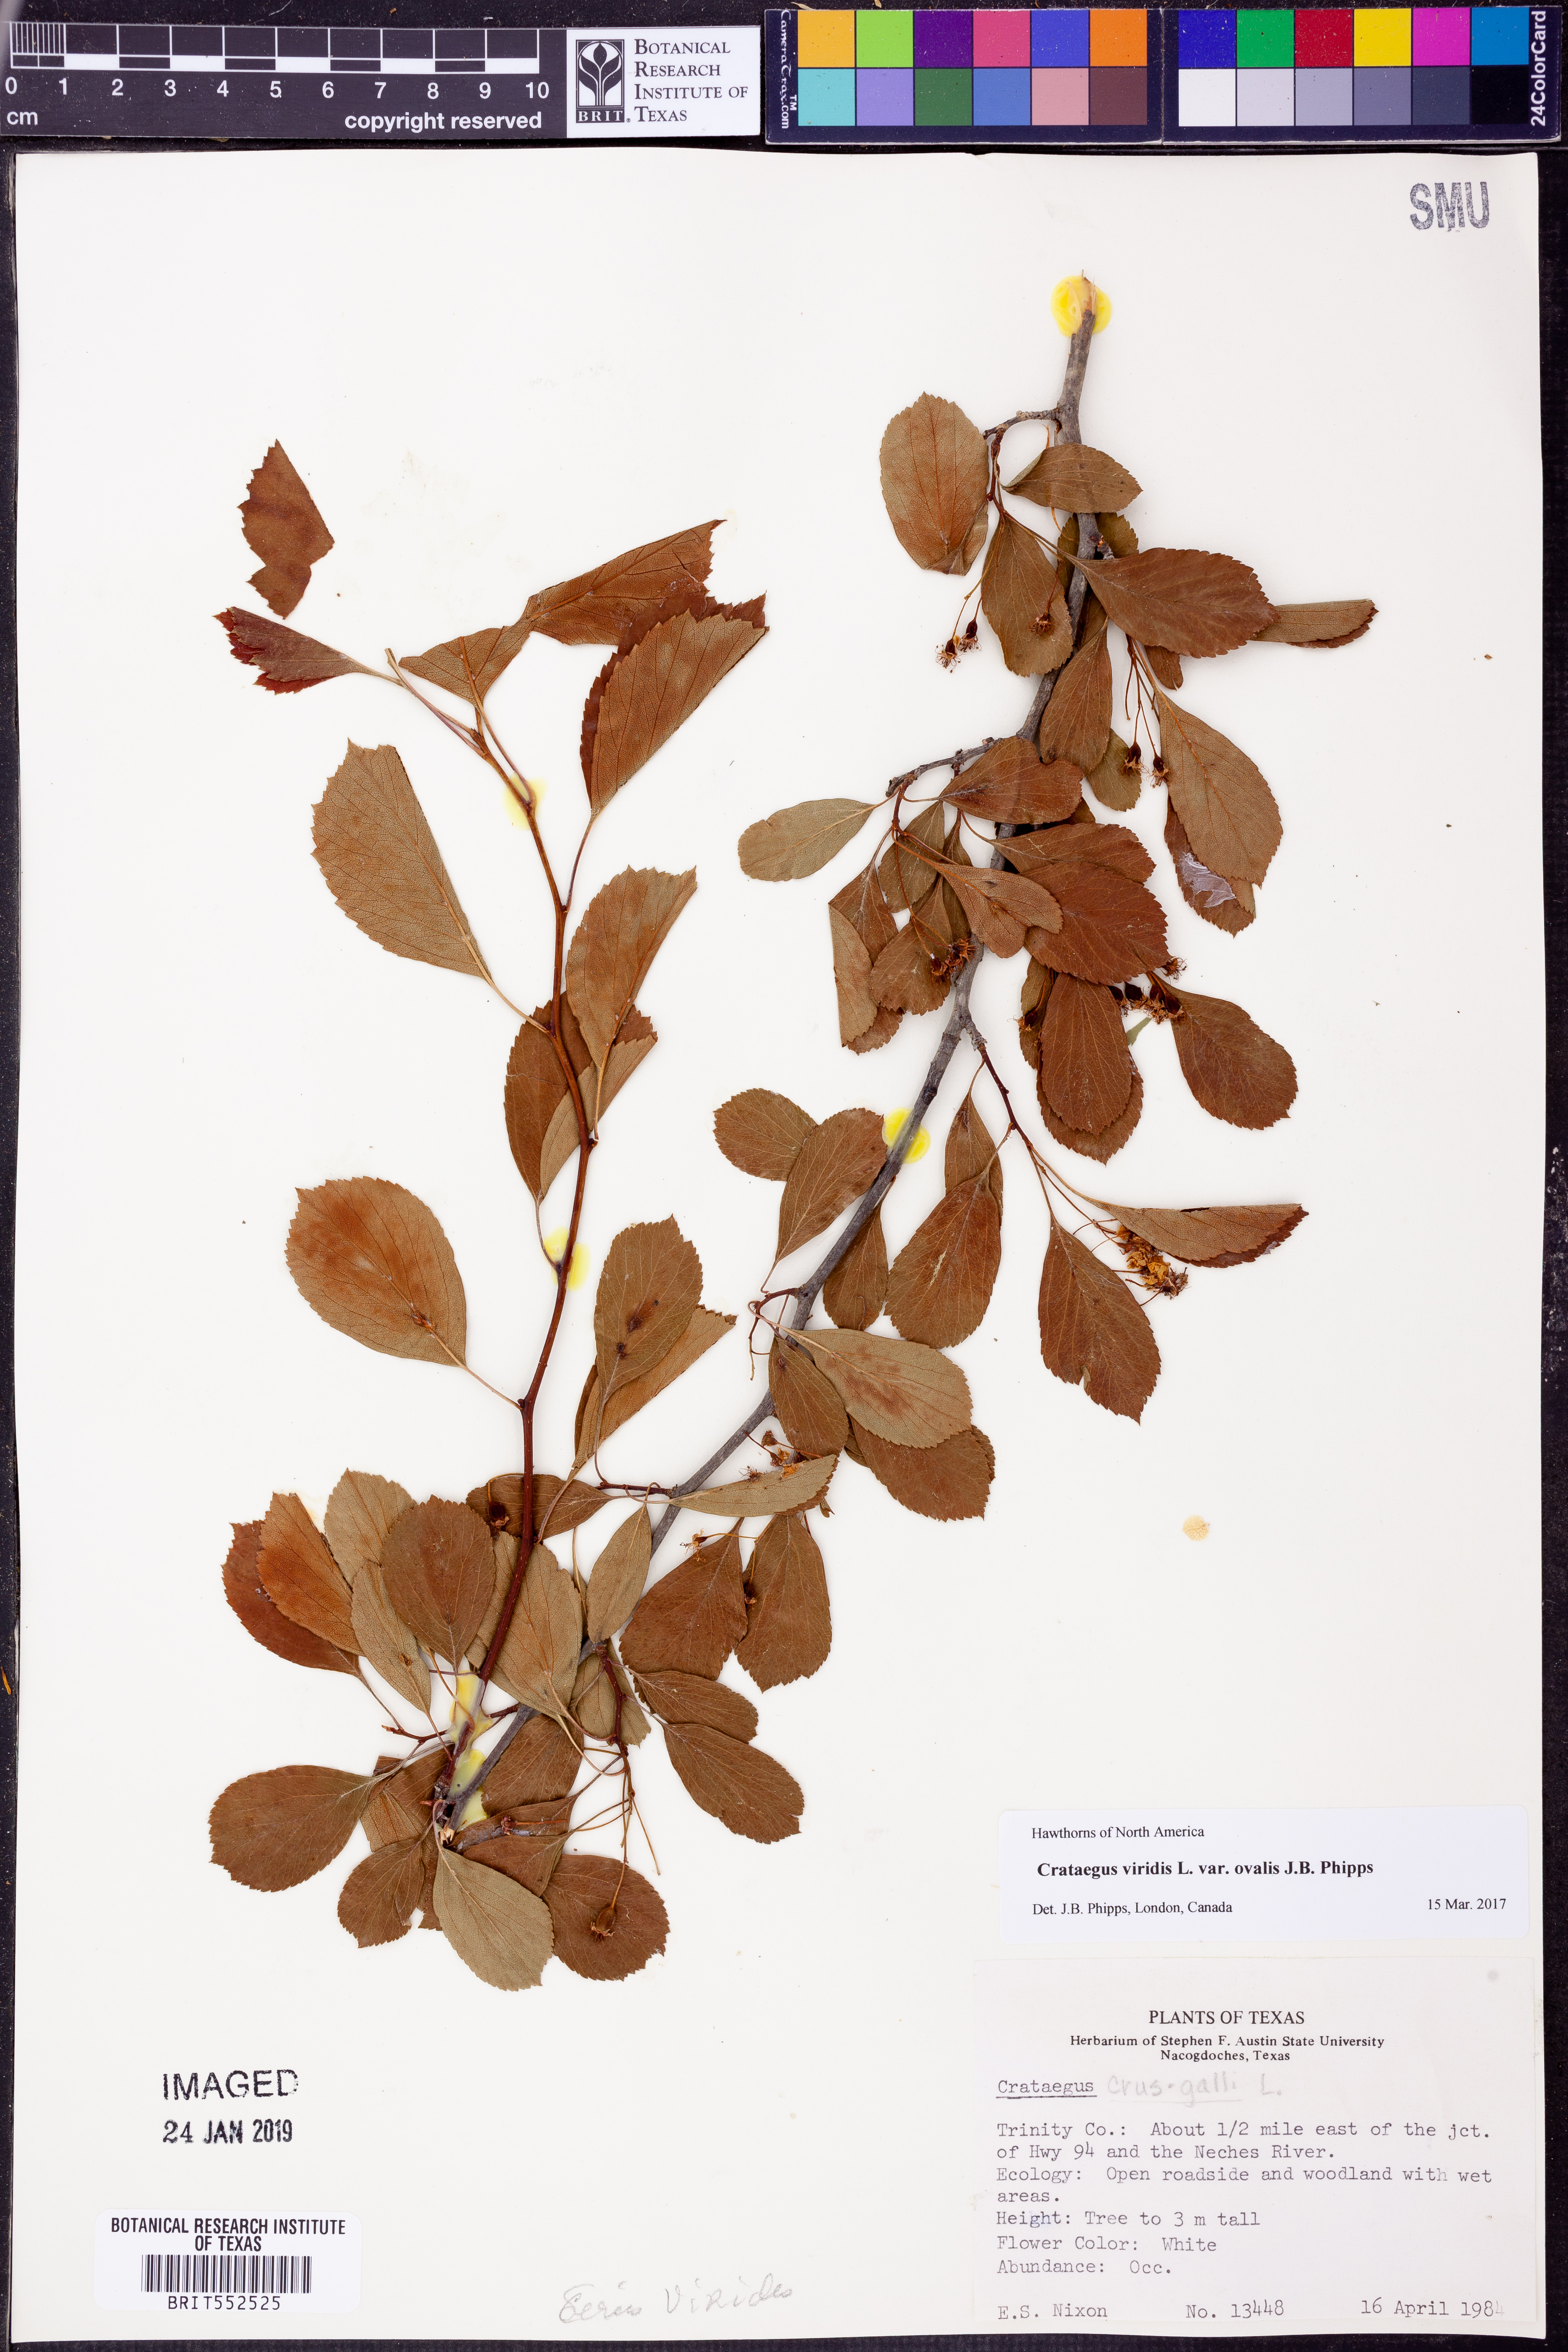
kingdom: Plantae
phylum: Tracheophyta
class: Magnoliopsida
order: Rosales
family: Rosaceae
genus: Crataegus
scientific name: Crataegus viridis
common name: Southernthorn
